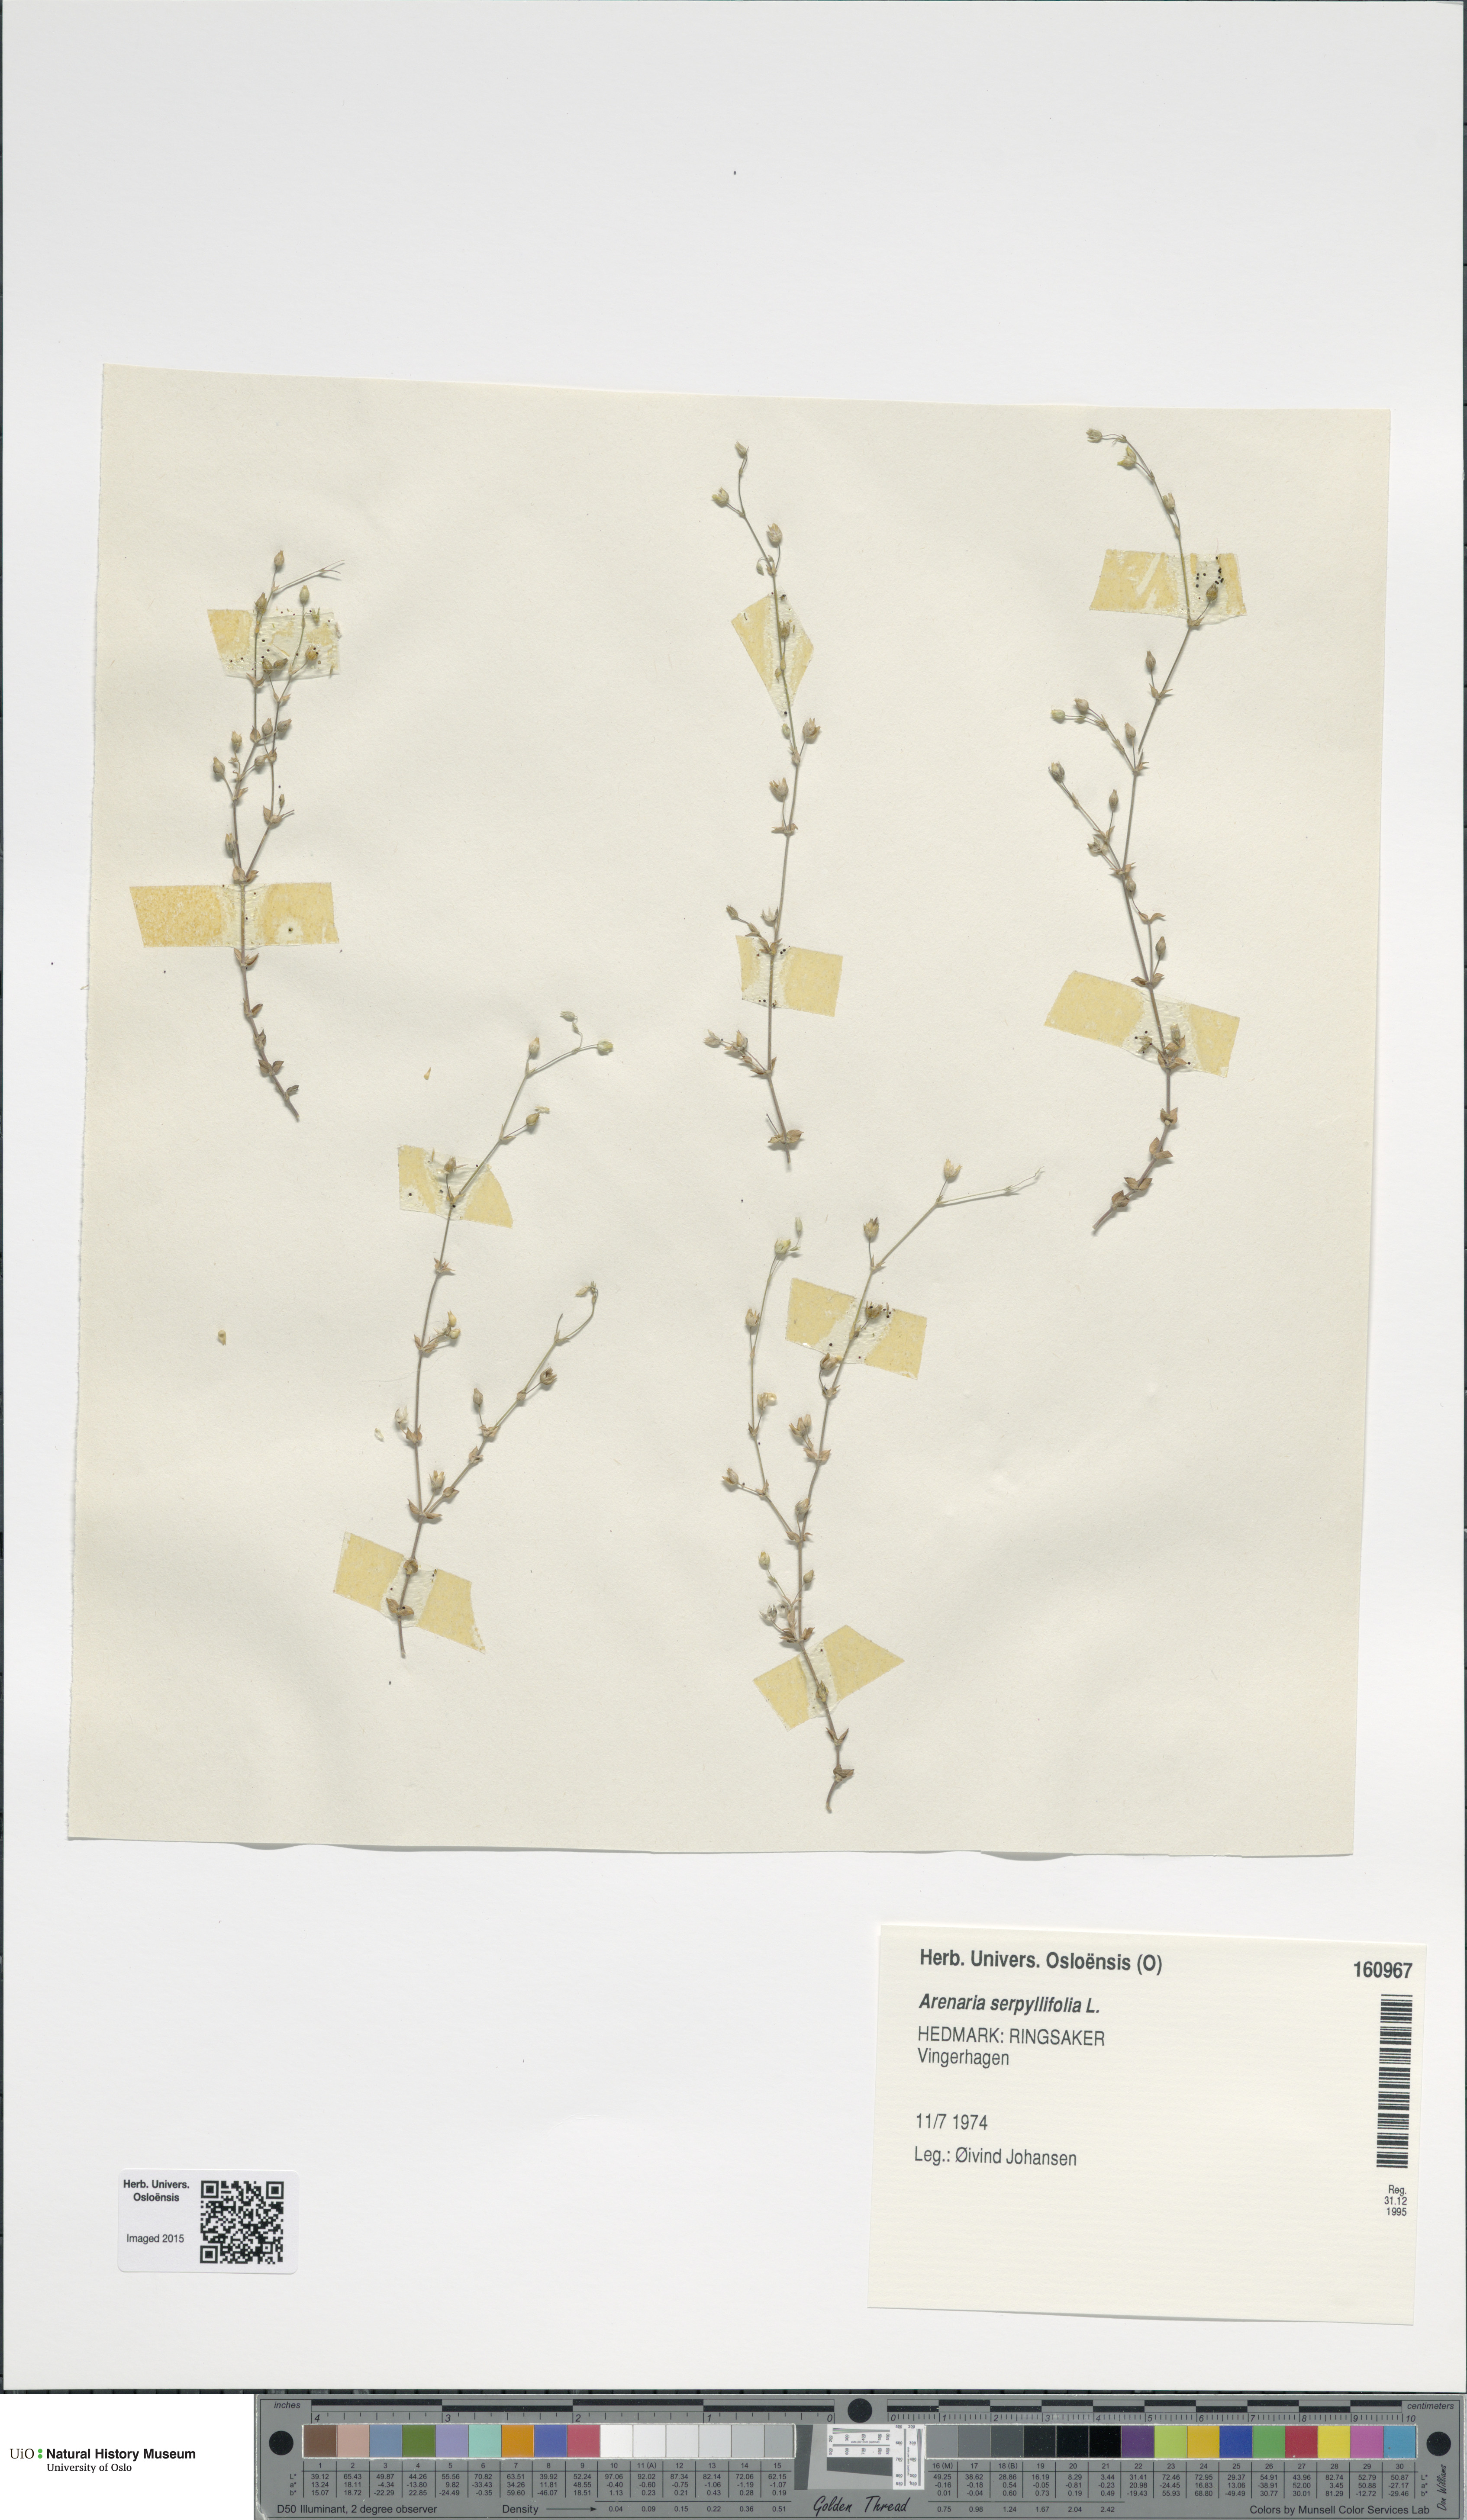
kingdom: Plantae
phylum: Tracheophyta
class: Magnoliopsida
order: Caryophyllales
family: Caryophyllaceae
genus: Arenaria
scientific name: Arenaria serpyllifolia
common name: Thyme-leaved sandwort
